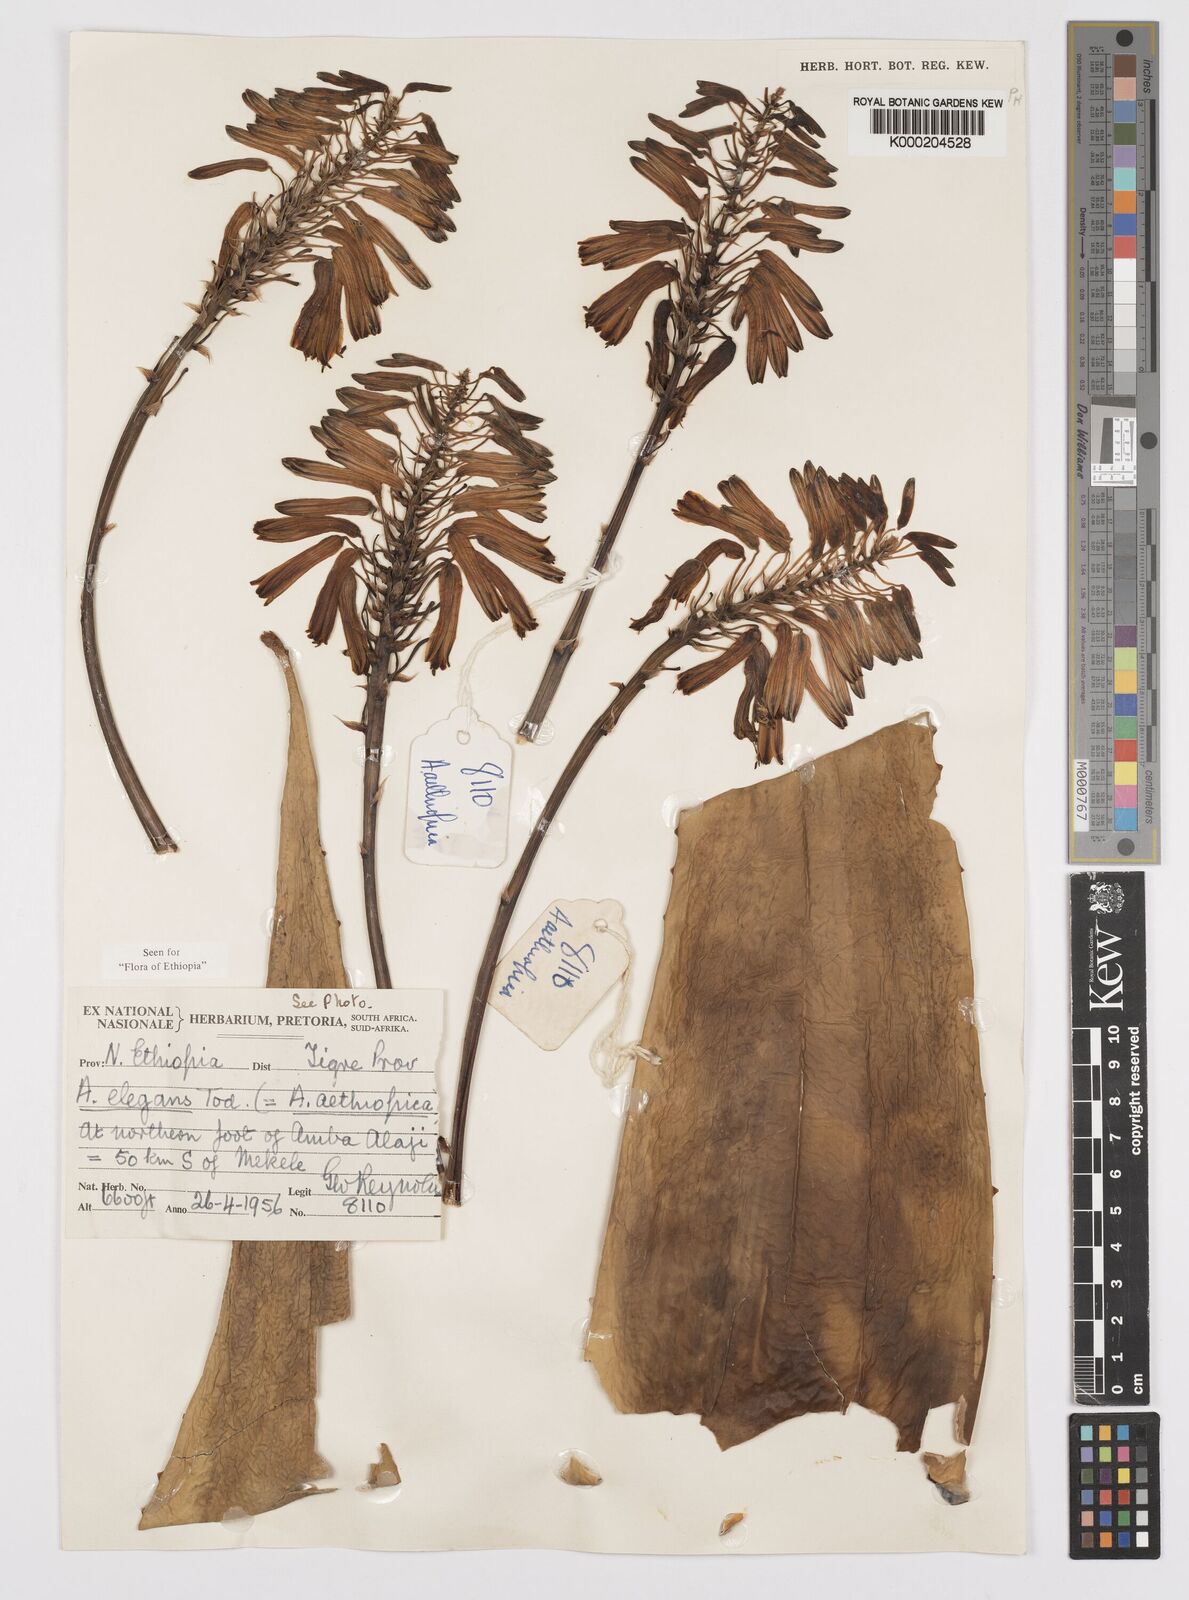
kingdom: Plantae
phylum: Tracheophyta
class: Liliopsida
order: Asparagales
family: Asphodelaceae
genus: Aloe
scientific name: Aloe elegans
